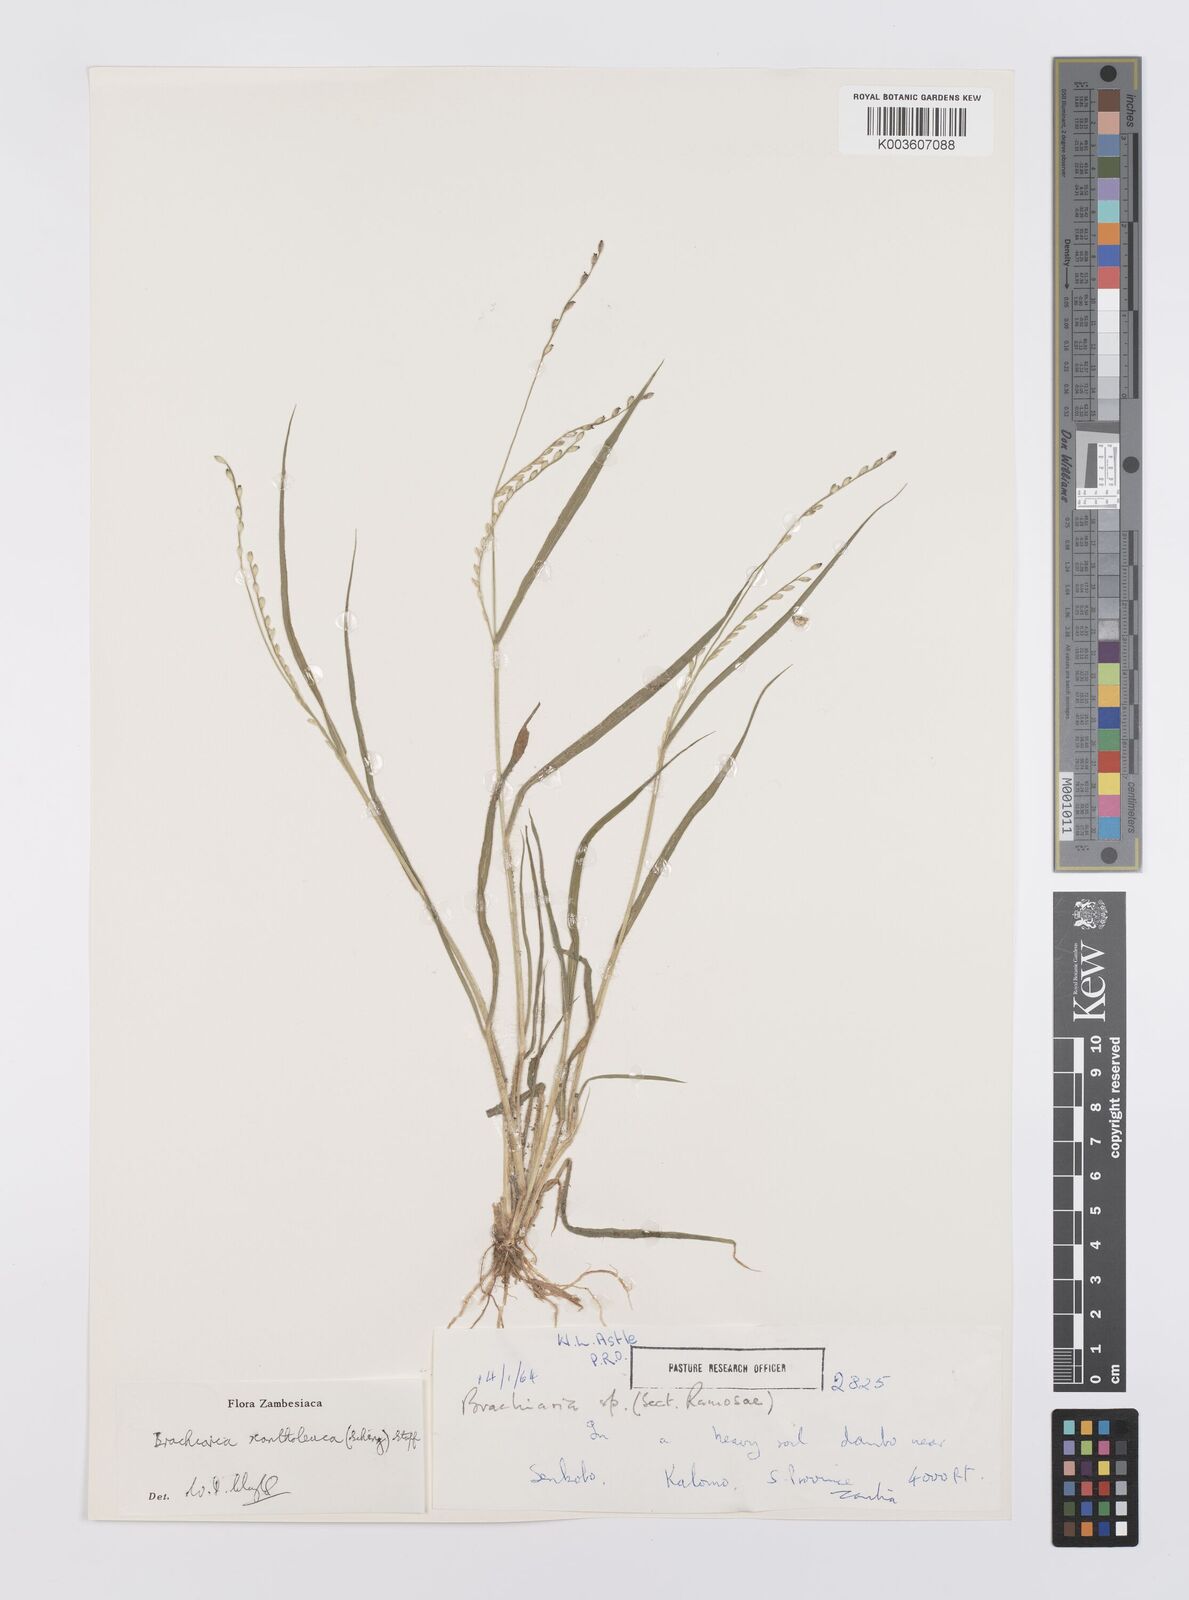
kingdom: Plantae
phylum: Tracheophyta
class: Liliopsida
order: Poales
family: Poaceae
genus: Urochloa
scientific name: Urochloa xantholeuca
